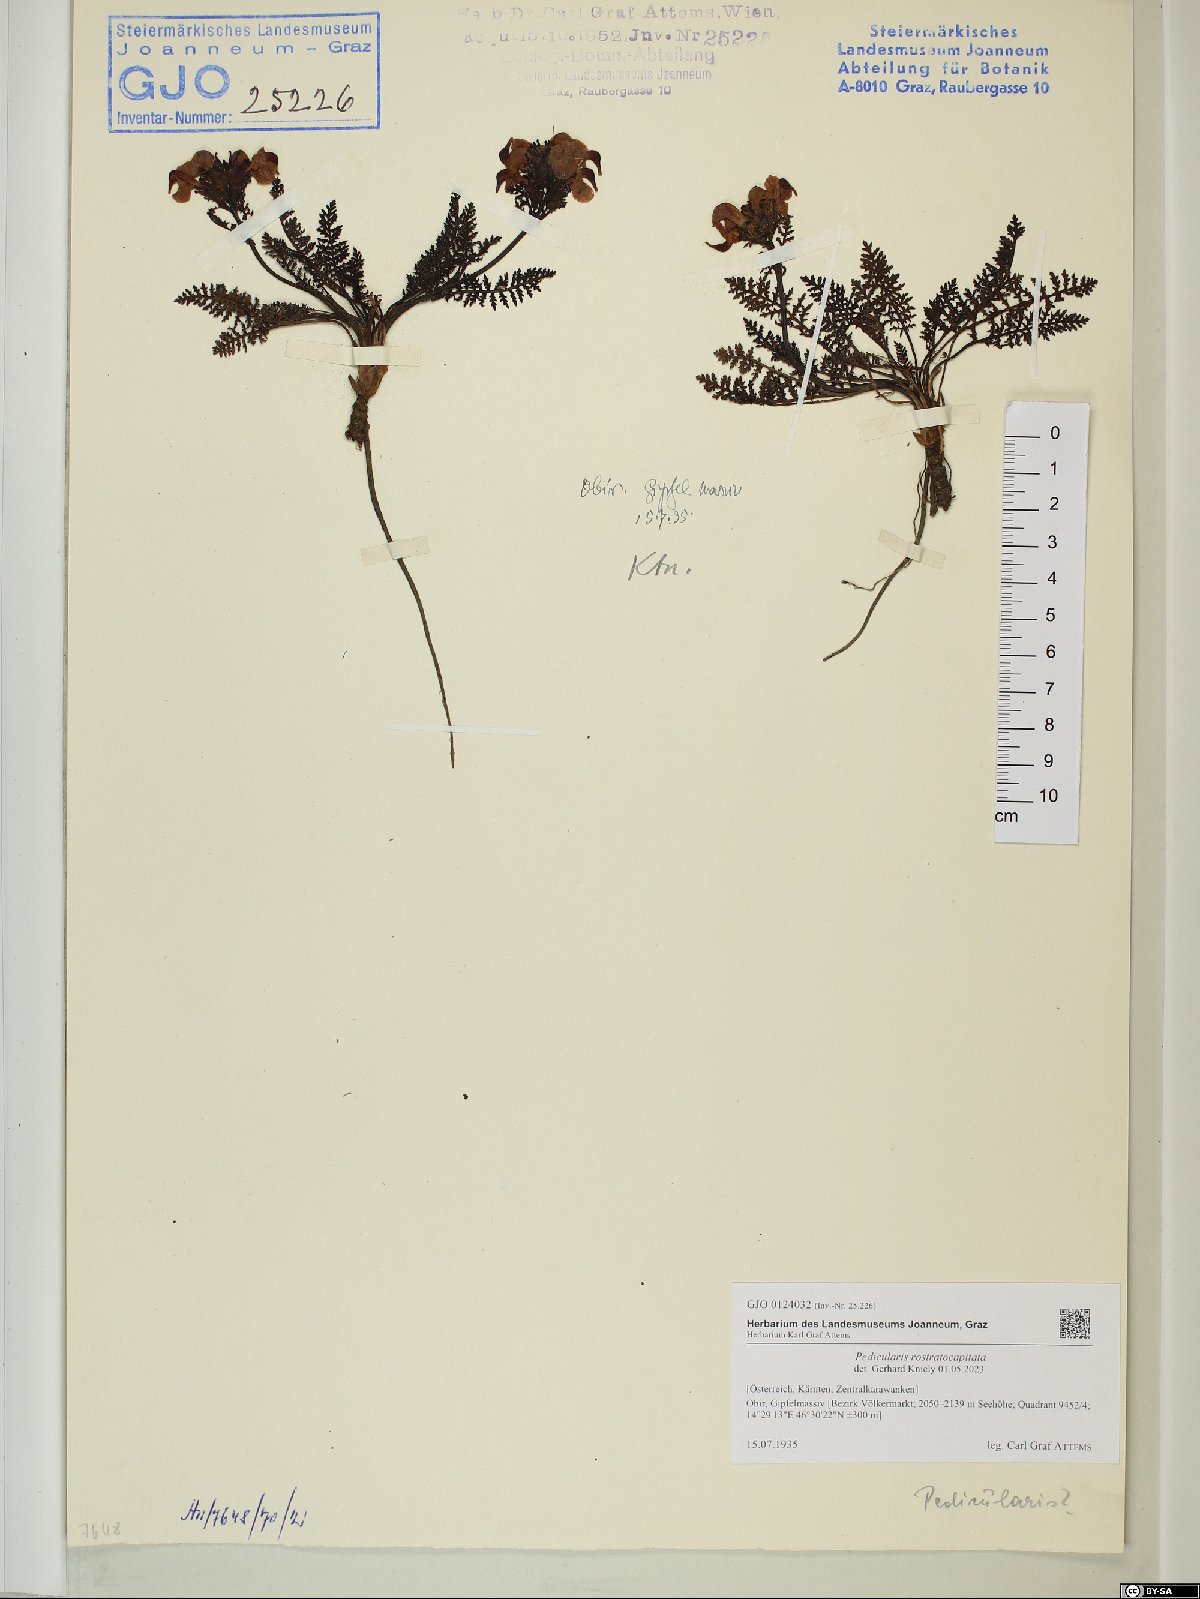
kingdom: Plantae
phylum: Tracheophyta
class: Magnoliopsida
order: Lamiales
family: Orobanchaceae
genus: Pedicularis
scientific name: Pedicularis rostratocapitata
